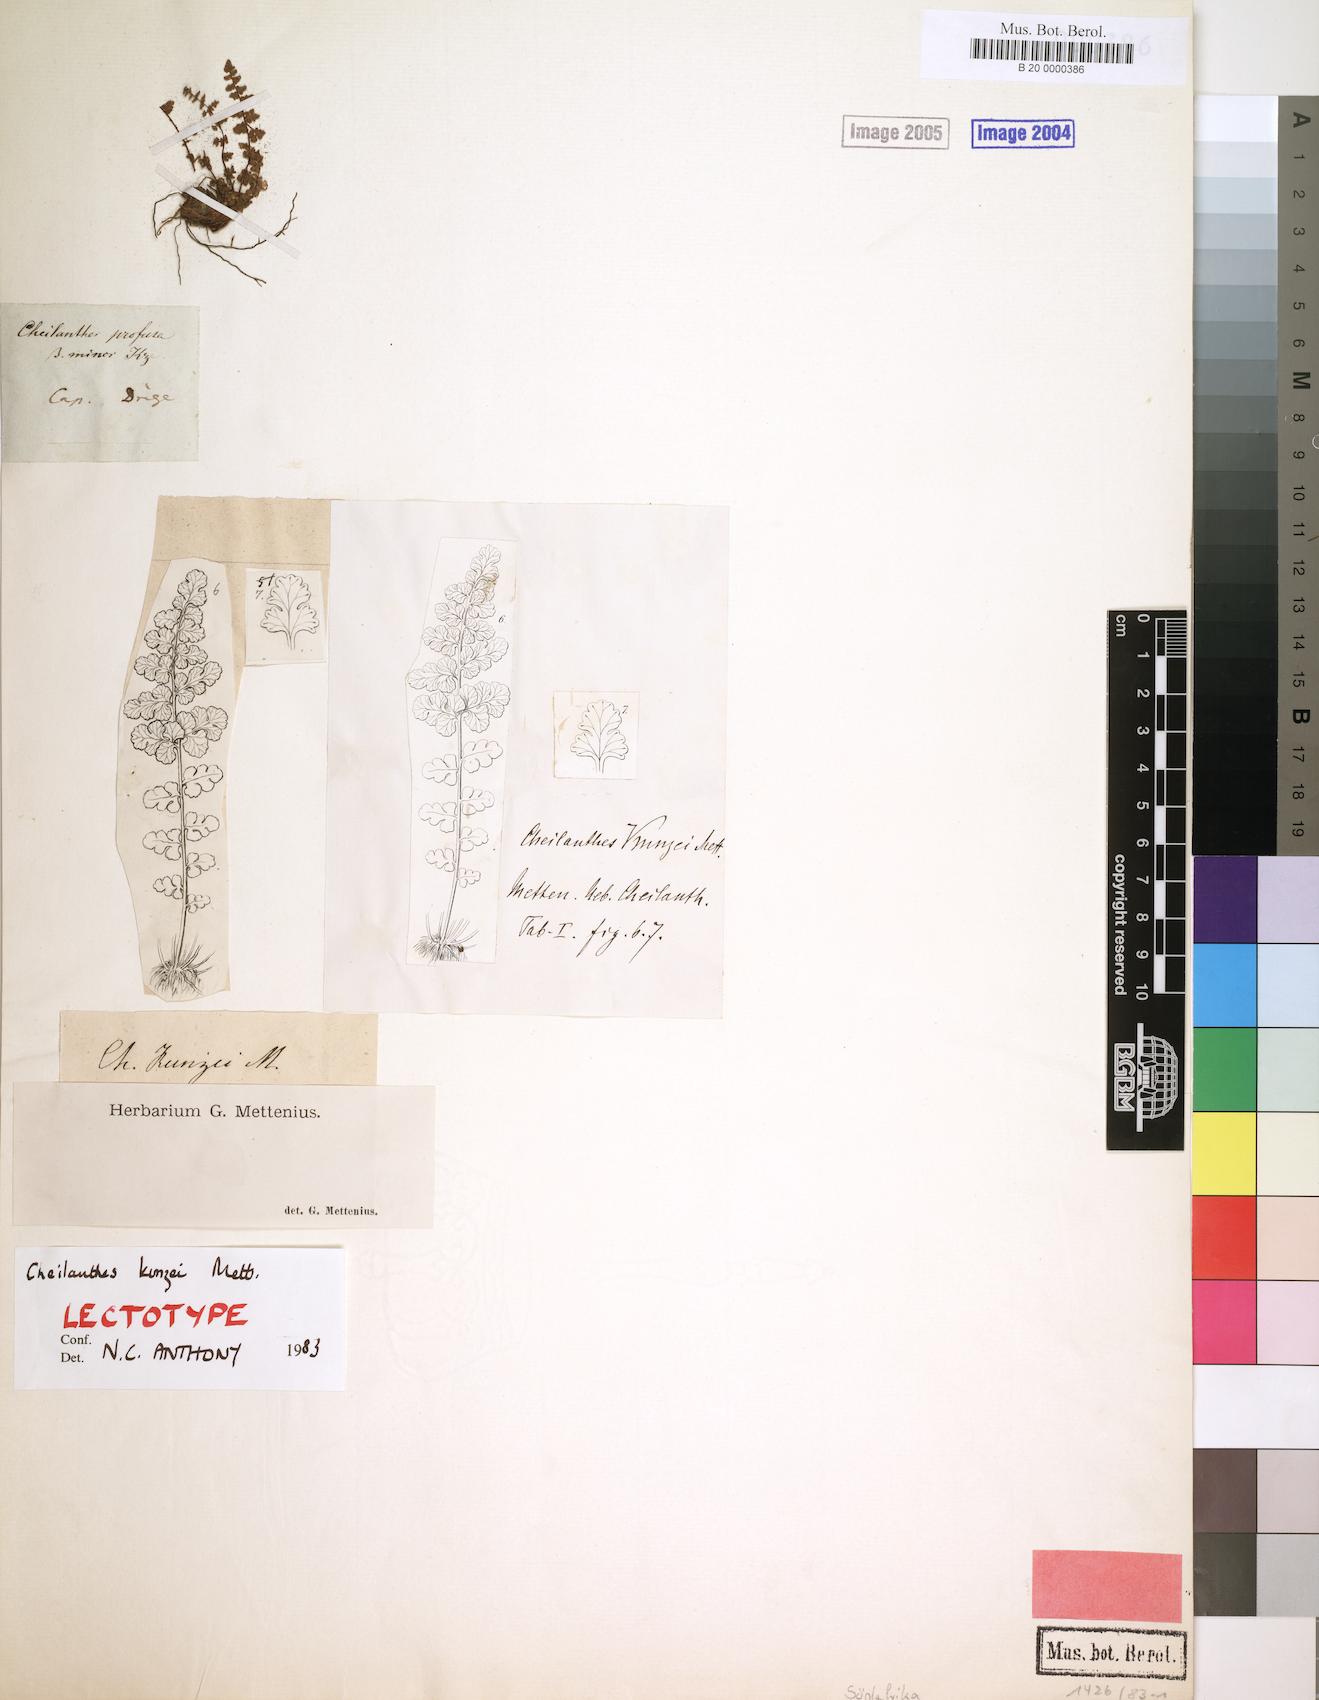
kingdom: Plantae
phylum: Tracheophyta
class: Polypodiopsida
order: Polypodiales
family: Pteridaceae
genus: Cheilanthes
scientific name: Cheilanthes kunzei
